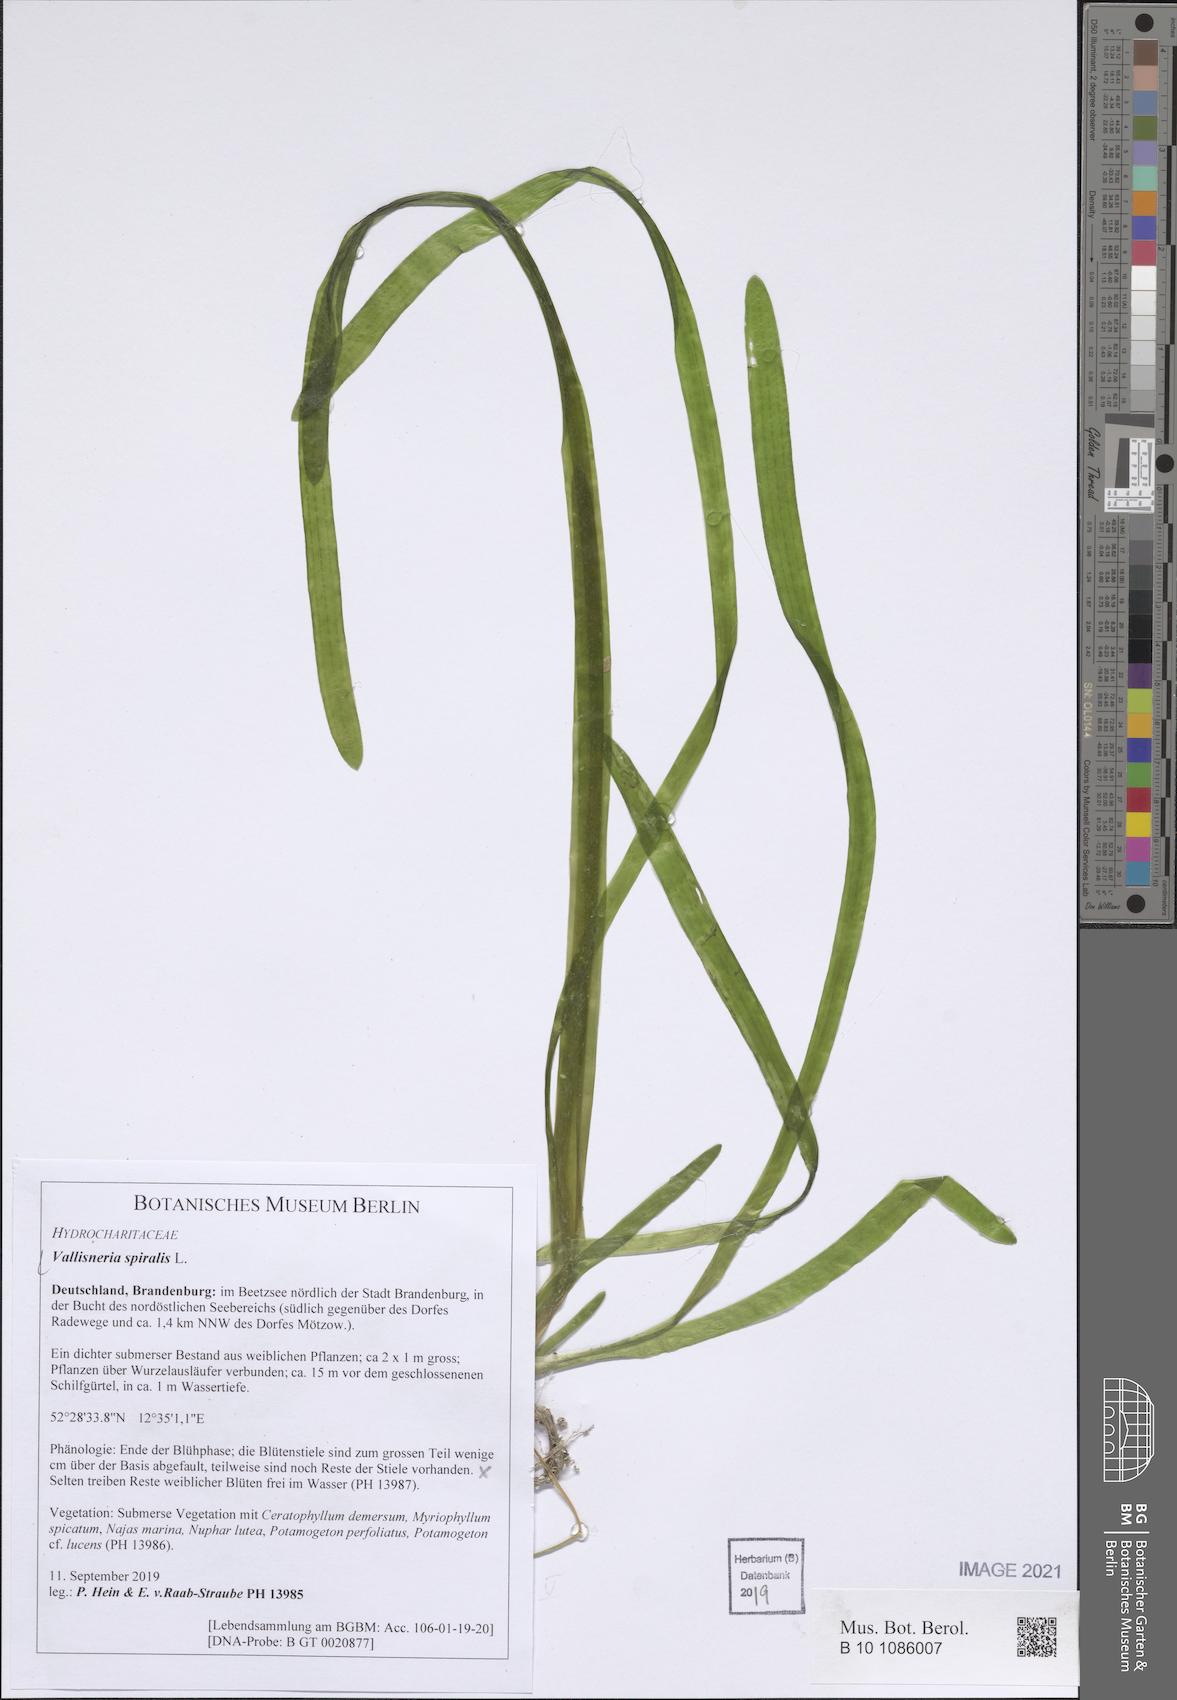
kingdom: Plantae
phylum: Tracheophyta
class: Liliopsida
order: Alismatales
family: Hydrocharitaceae
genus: Vallisneria
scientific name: Vallisneria spiralis
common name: Tapegrass
